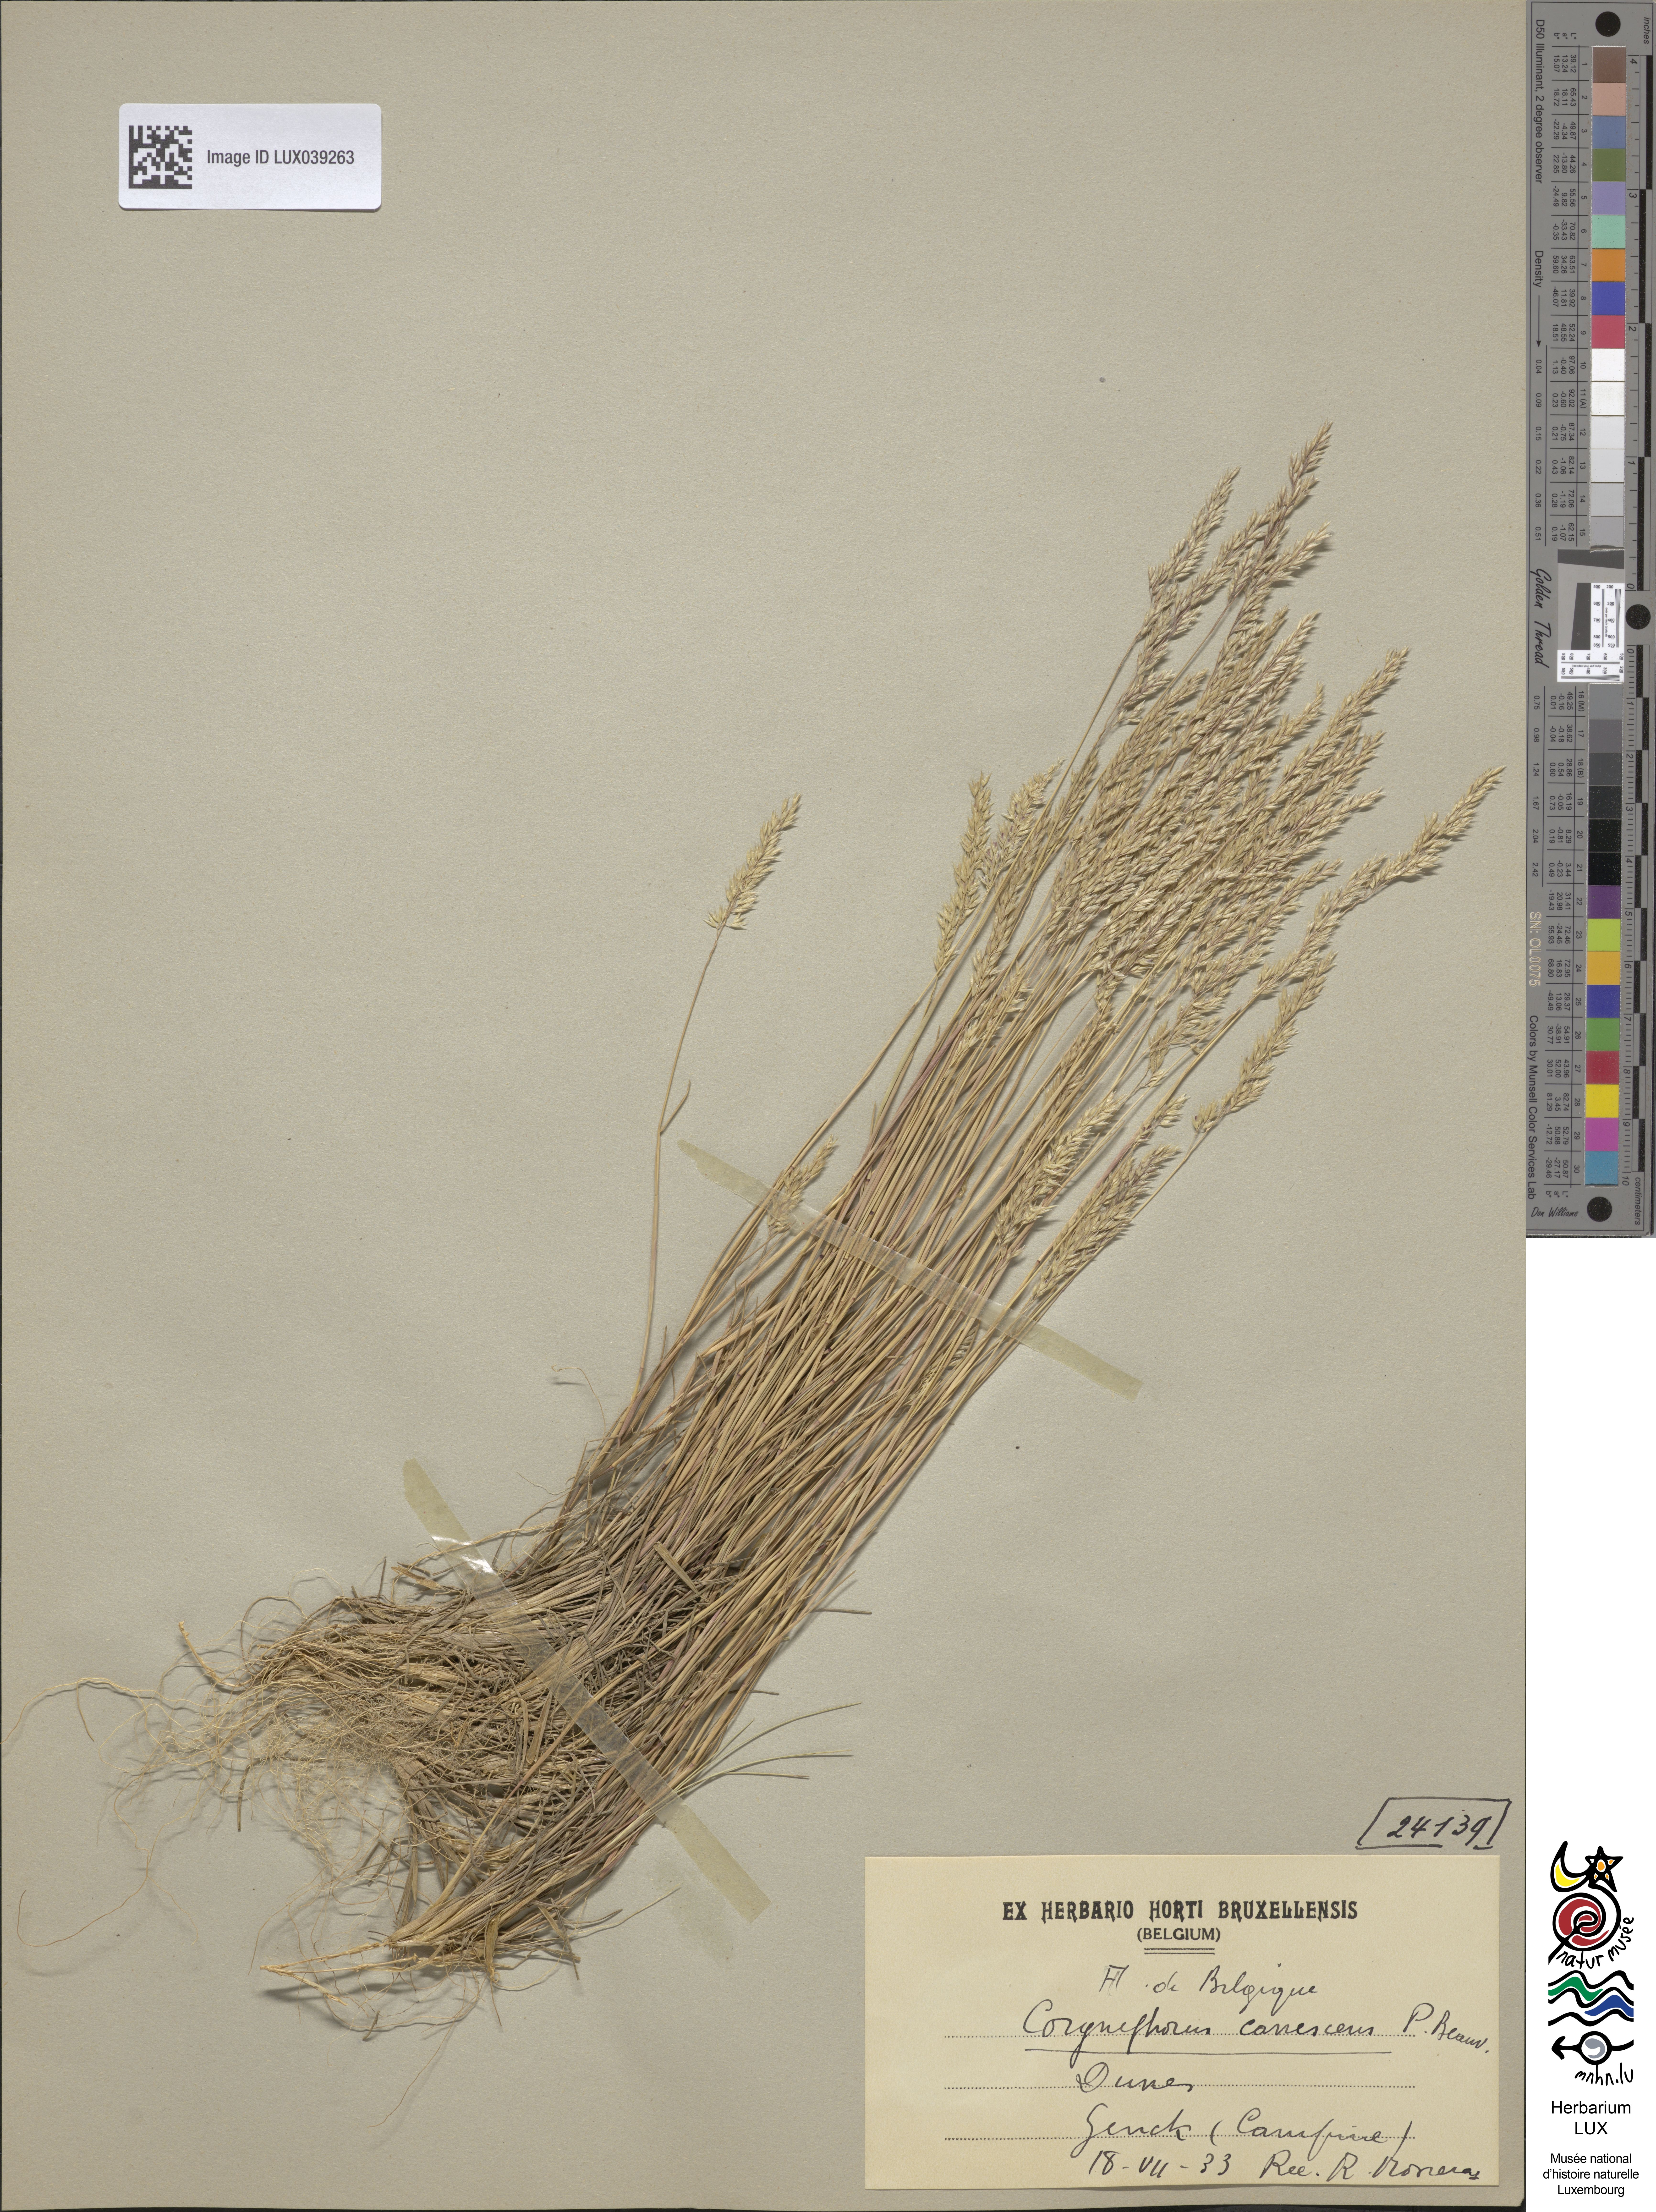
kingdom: Plantae
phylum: Tracheophyta
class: Liliopsida
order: Poales
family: Poaceae
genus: Corynephorus
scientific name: Corynephorus canescens
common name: Grey hair-grass
